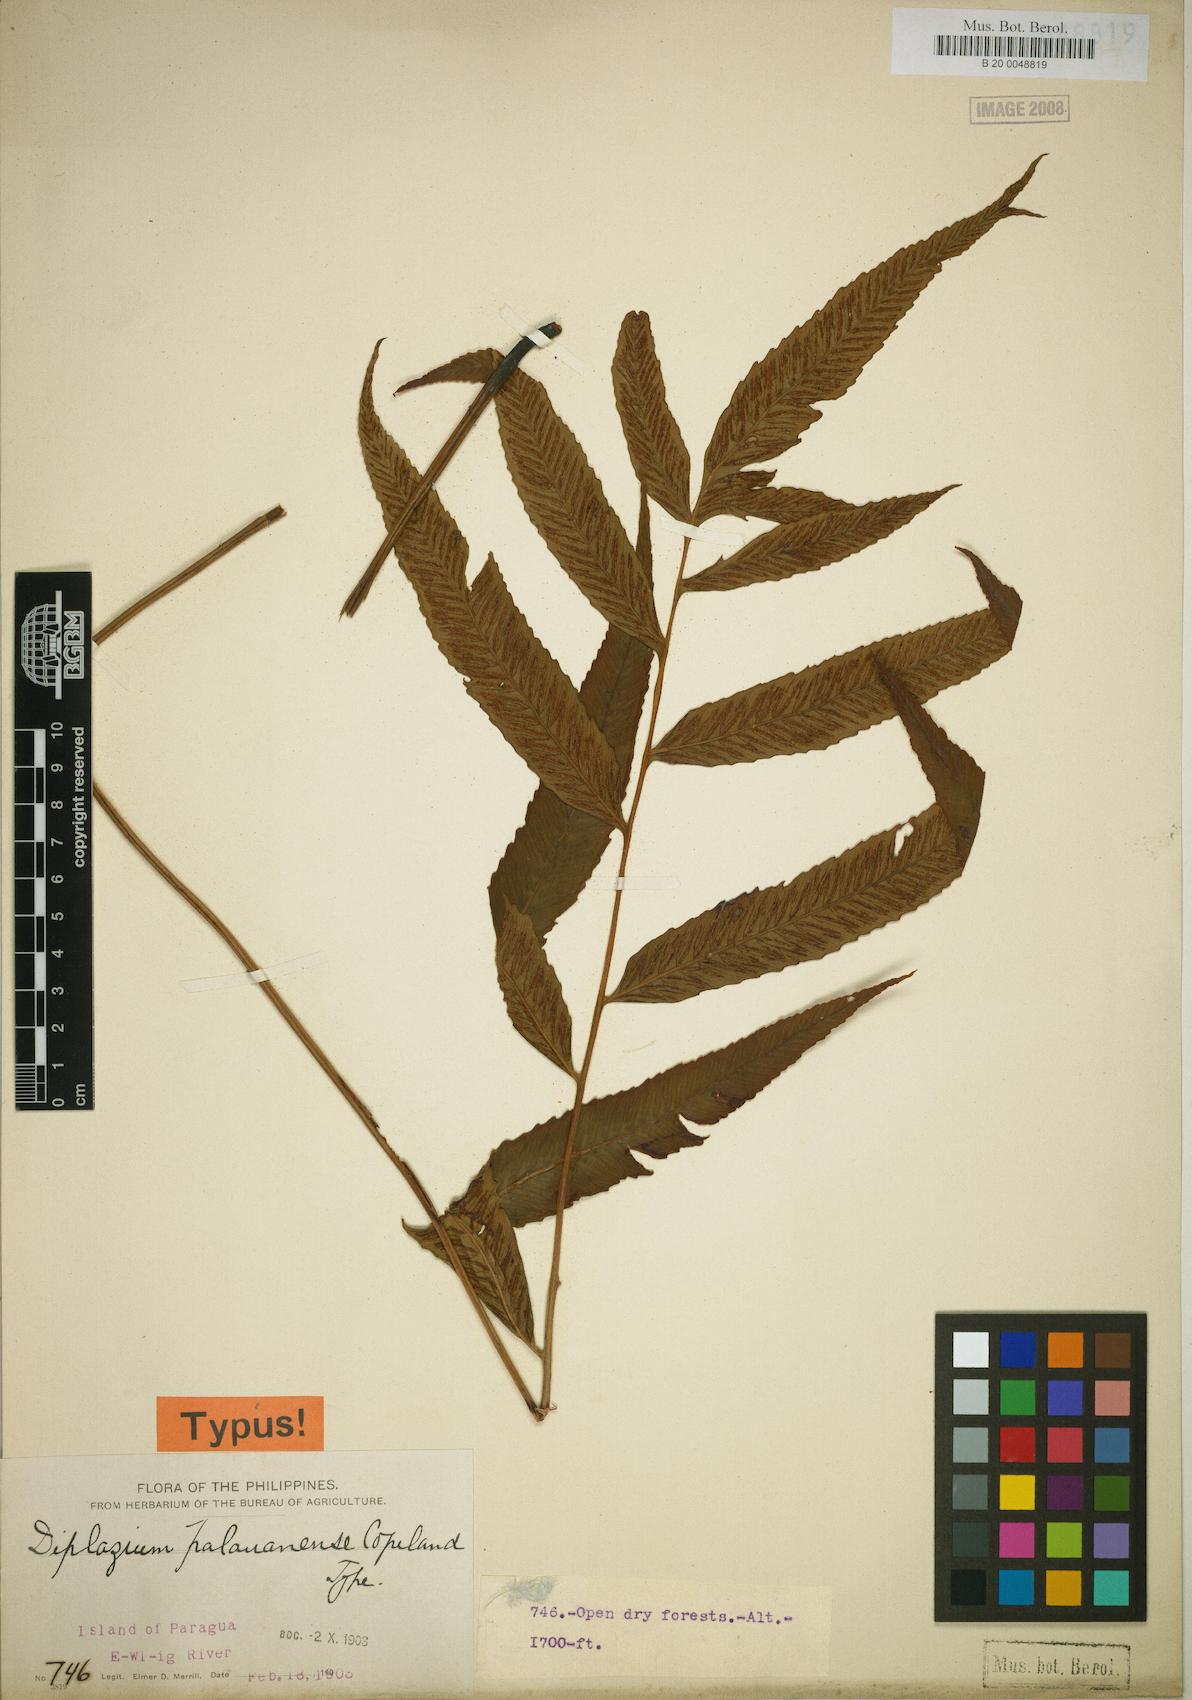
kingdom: Plantae
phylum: Tracheophyta
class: Polypodiopsida
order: Polypodiales
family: Athyriaceae
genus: Diplazium
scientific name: Diplazium xiphophyllum
